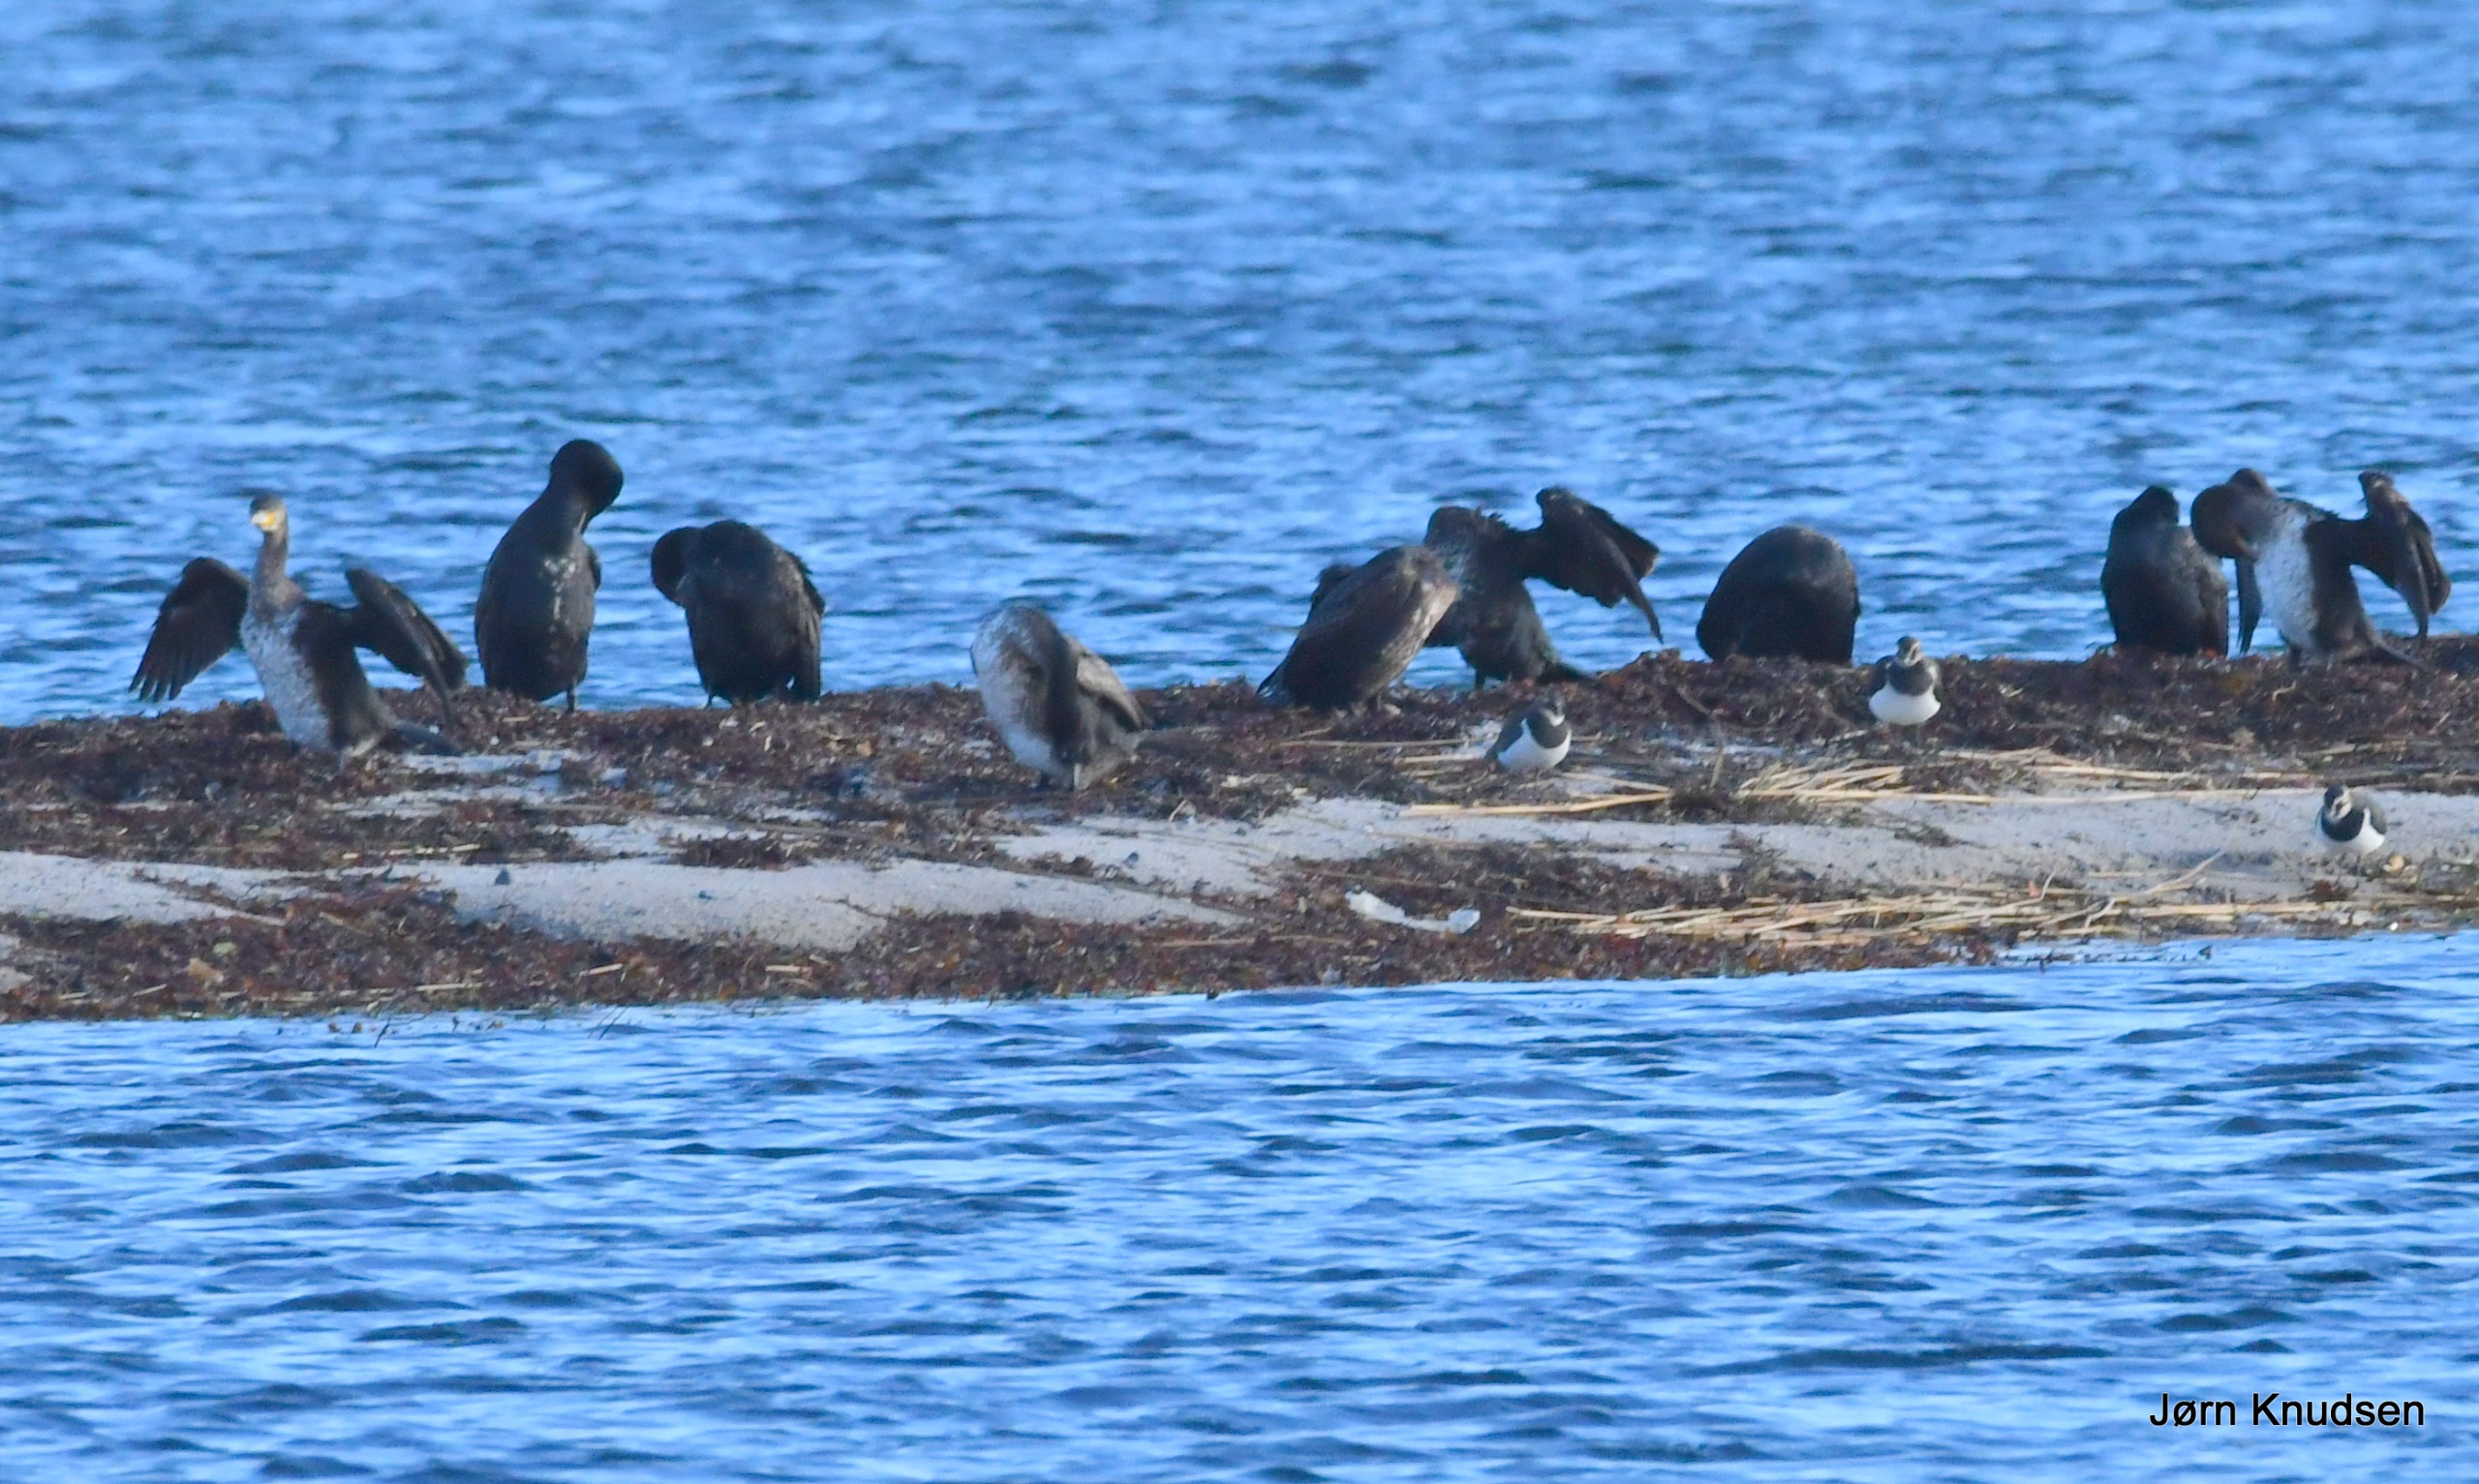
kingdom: Animalia
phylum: Chordata
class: Aves
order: Suliformes
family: Phalacrocoracidae
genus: Phalacrocorax
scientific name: Phalacrocorax carbo
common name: Skarv
